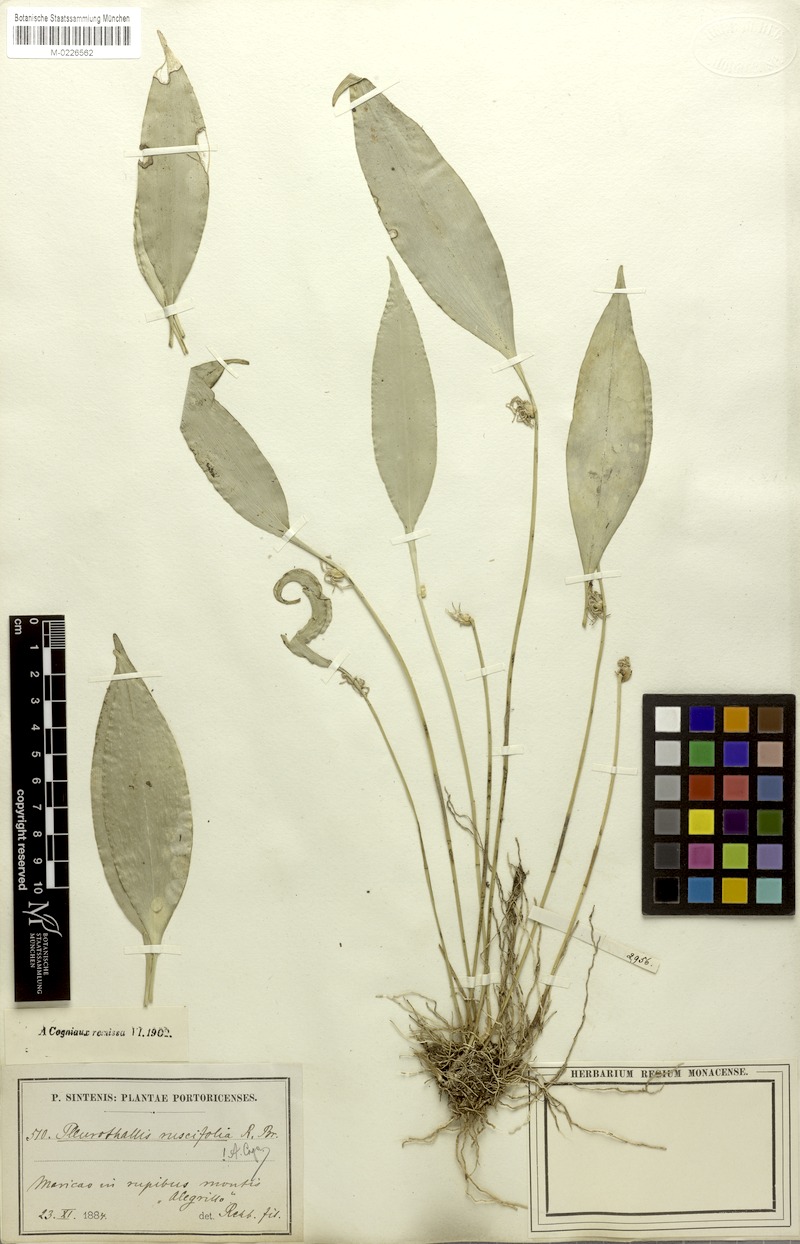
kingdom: Plantae
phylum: Tracheophyta
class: Liliopsida
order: Asparagales
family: Orchidaceae
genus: Pleurothallis
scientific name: Pleurothallis ruscifolia
